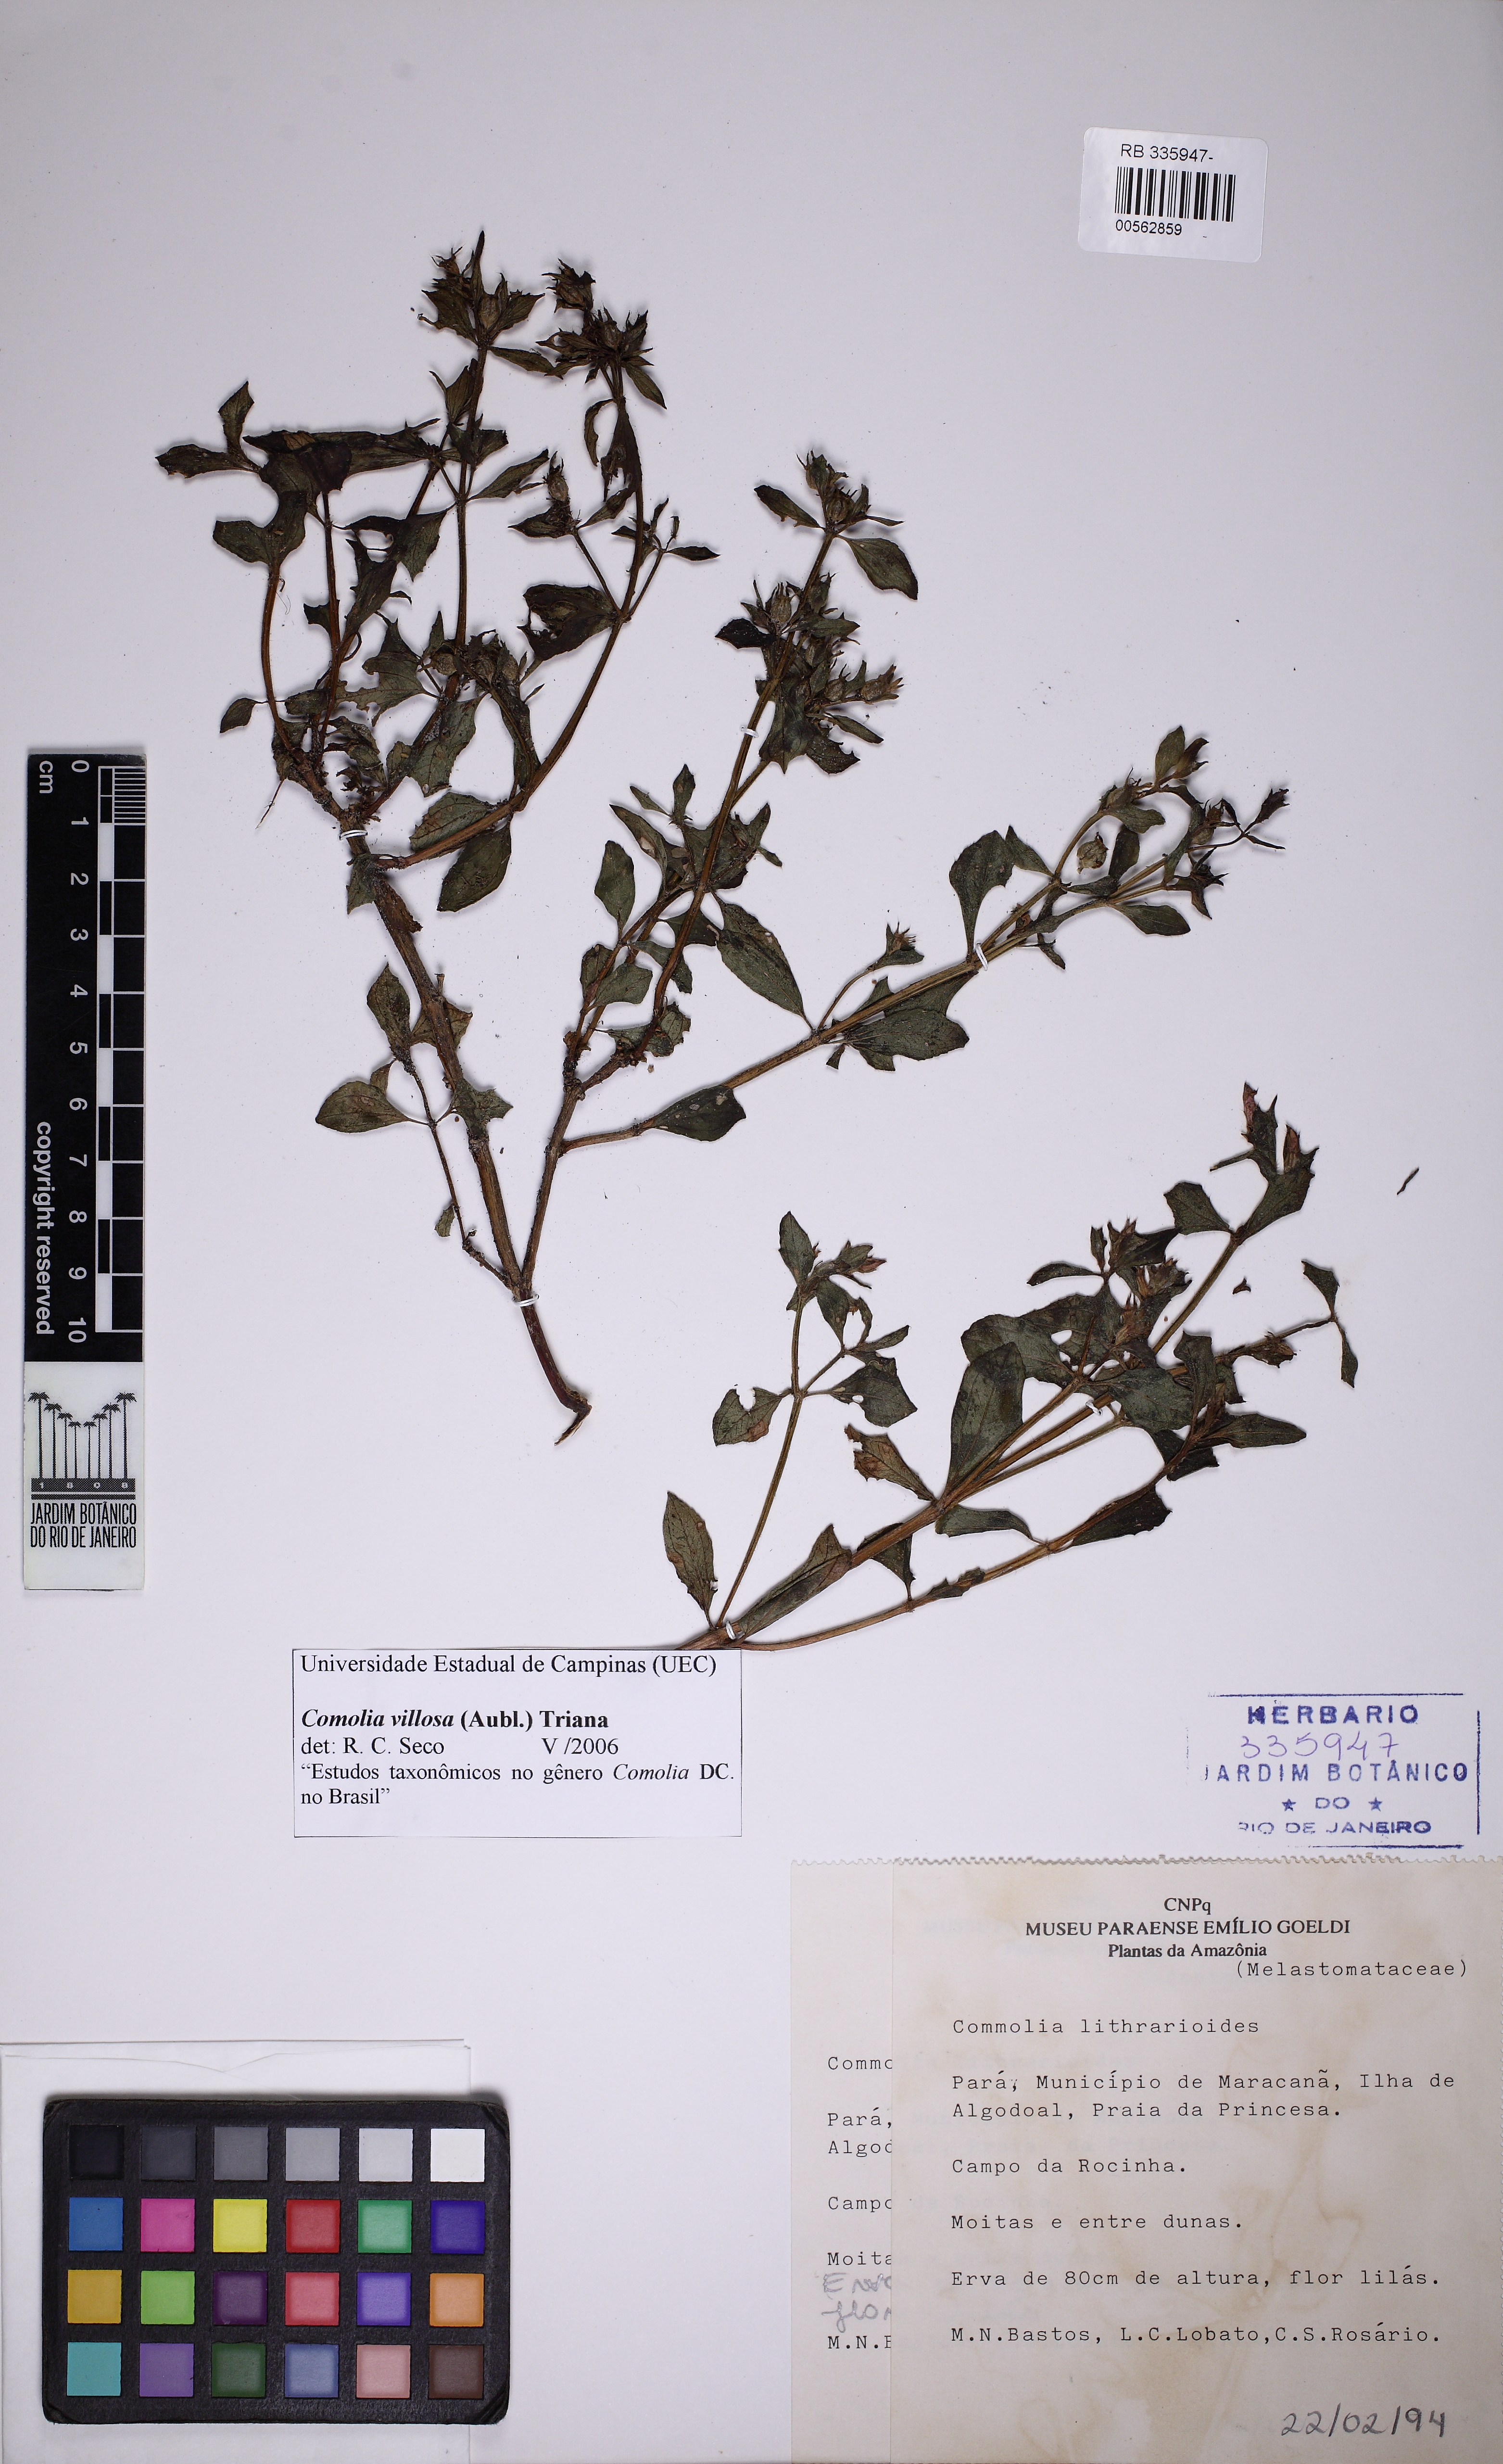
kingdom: Plantae
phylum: Tracheophyta
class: Magnoliopsida
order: Myrtales
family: Melastomataceae
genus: Comolia
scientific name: Comolia villosa
